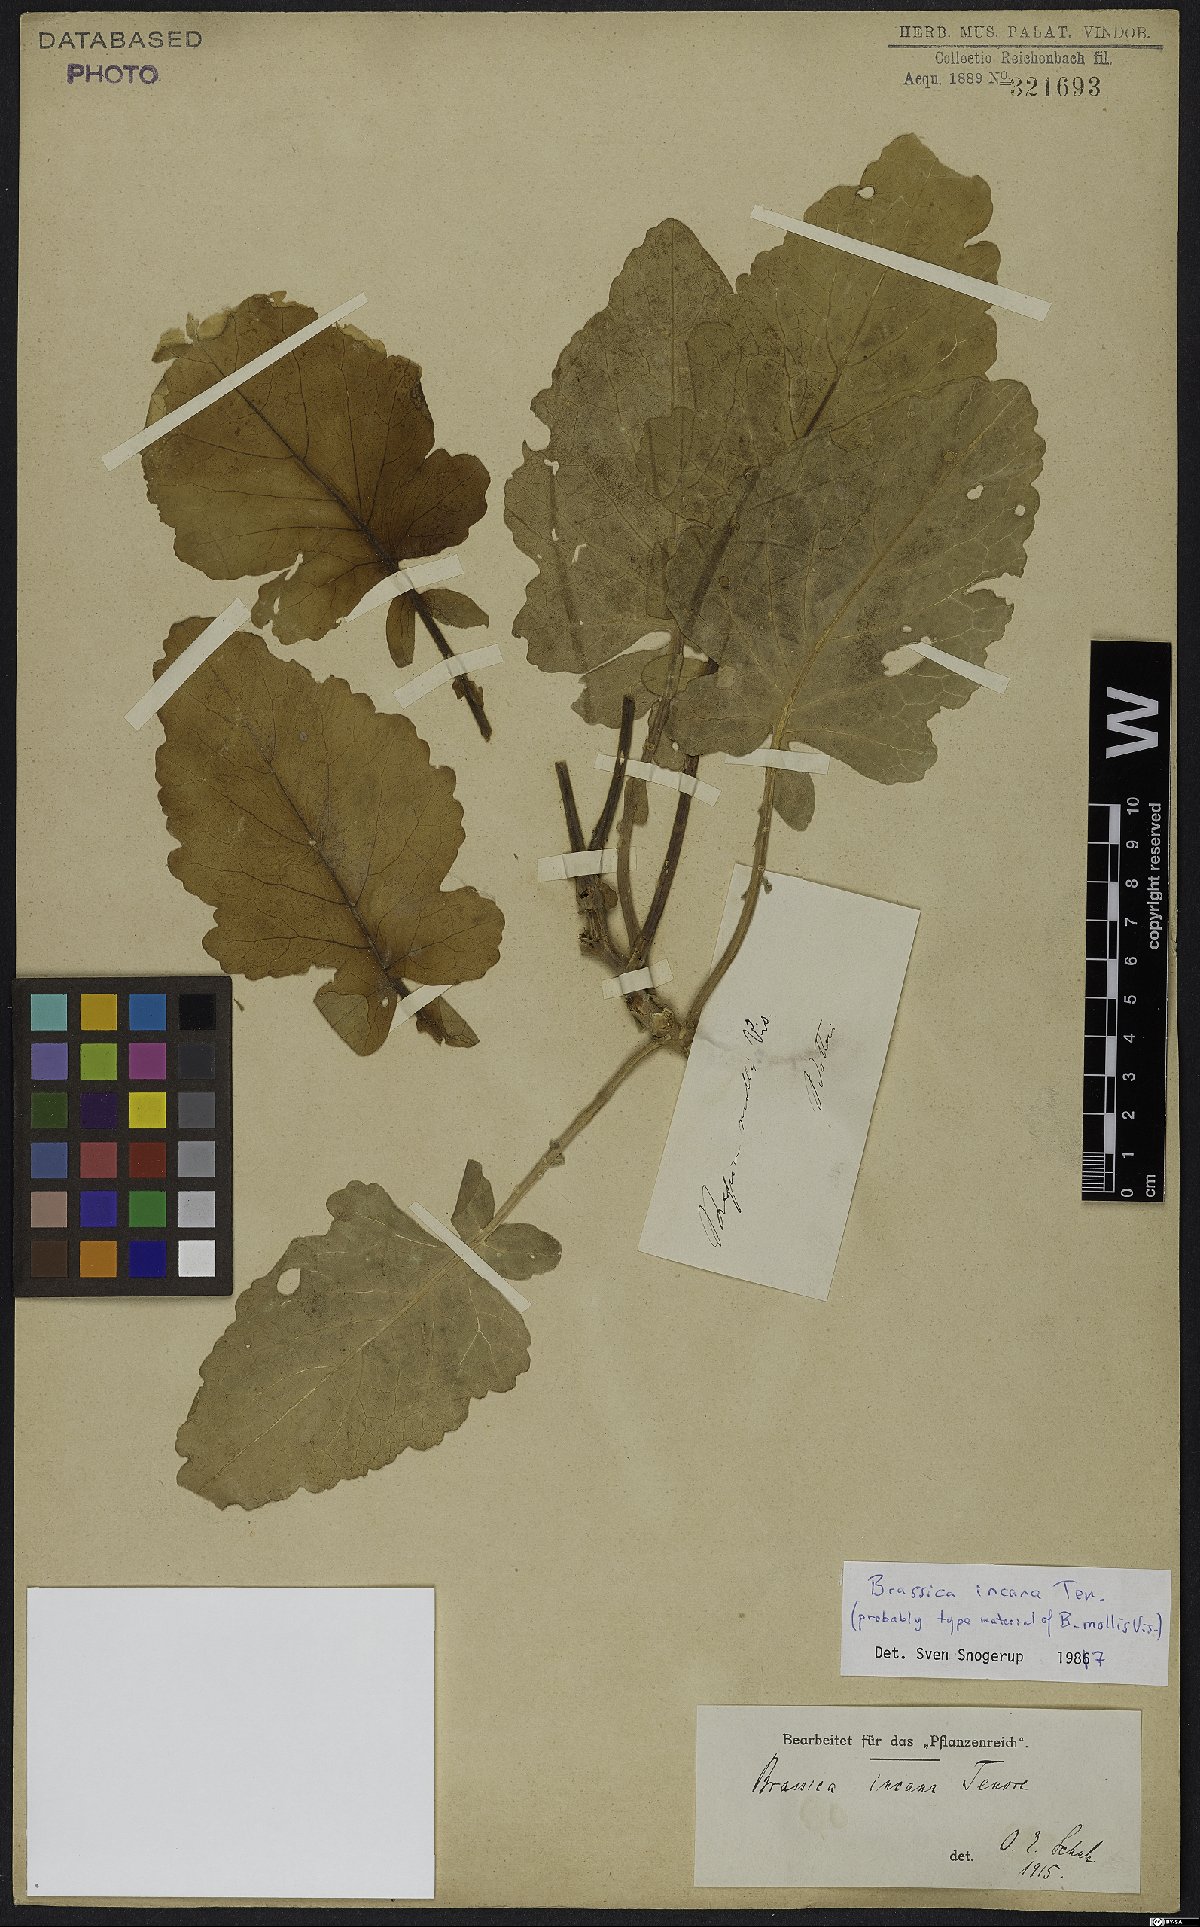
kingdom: Plantae
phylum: Tracheophyta
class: Magnoliopsida
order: Brassicales
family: Brassicaceae
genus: Brassica
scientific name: Brassica incana
